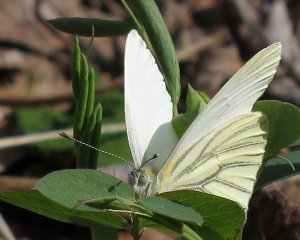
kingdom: Animalia
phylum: Arthropoda
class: Insecta
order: Lepidoptera
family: Pieridae
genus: Pieris
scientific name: Pieris oleracea
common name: Mustard White
